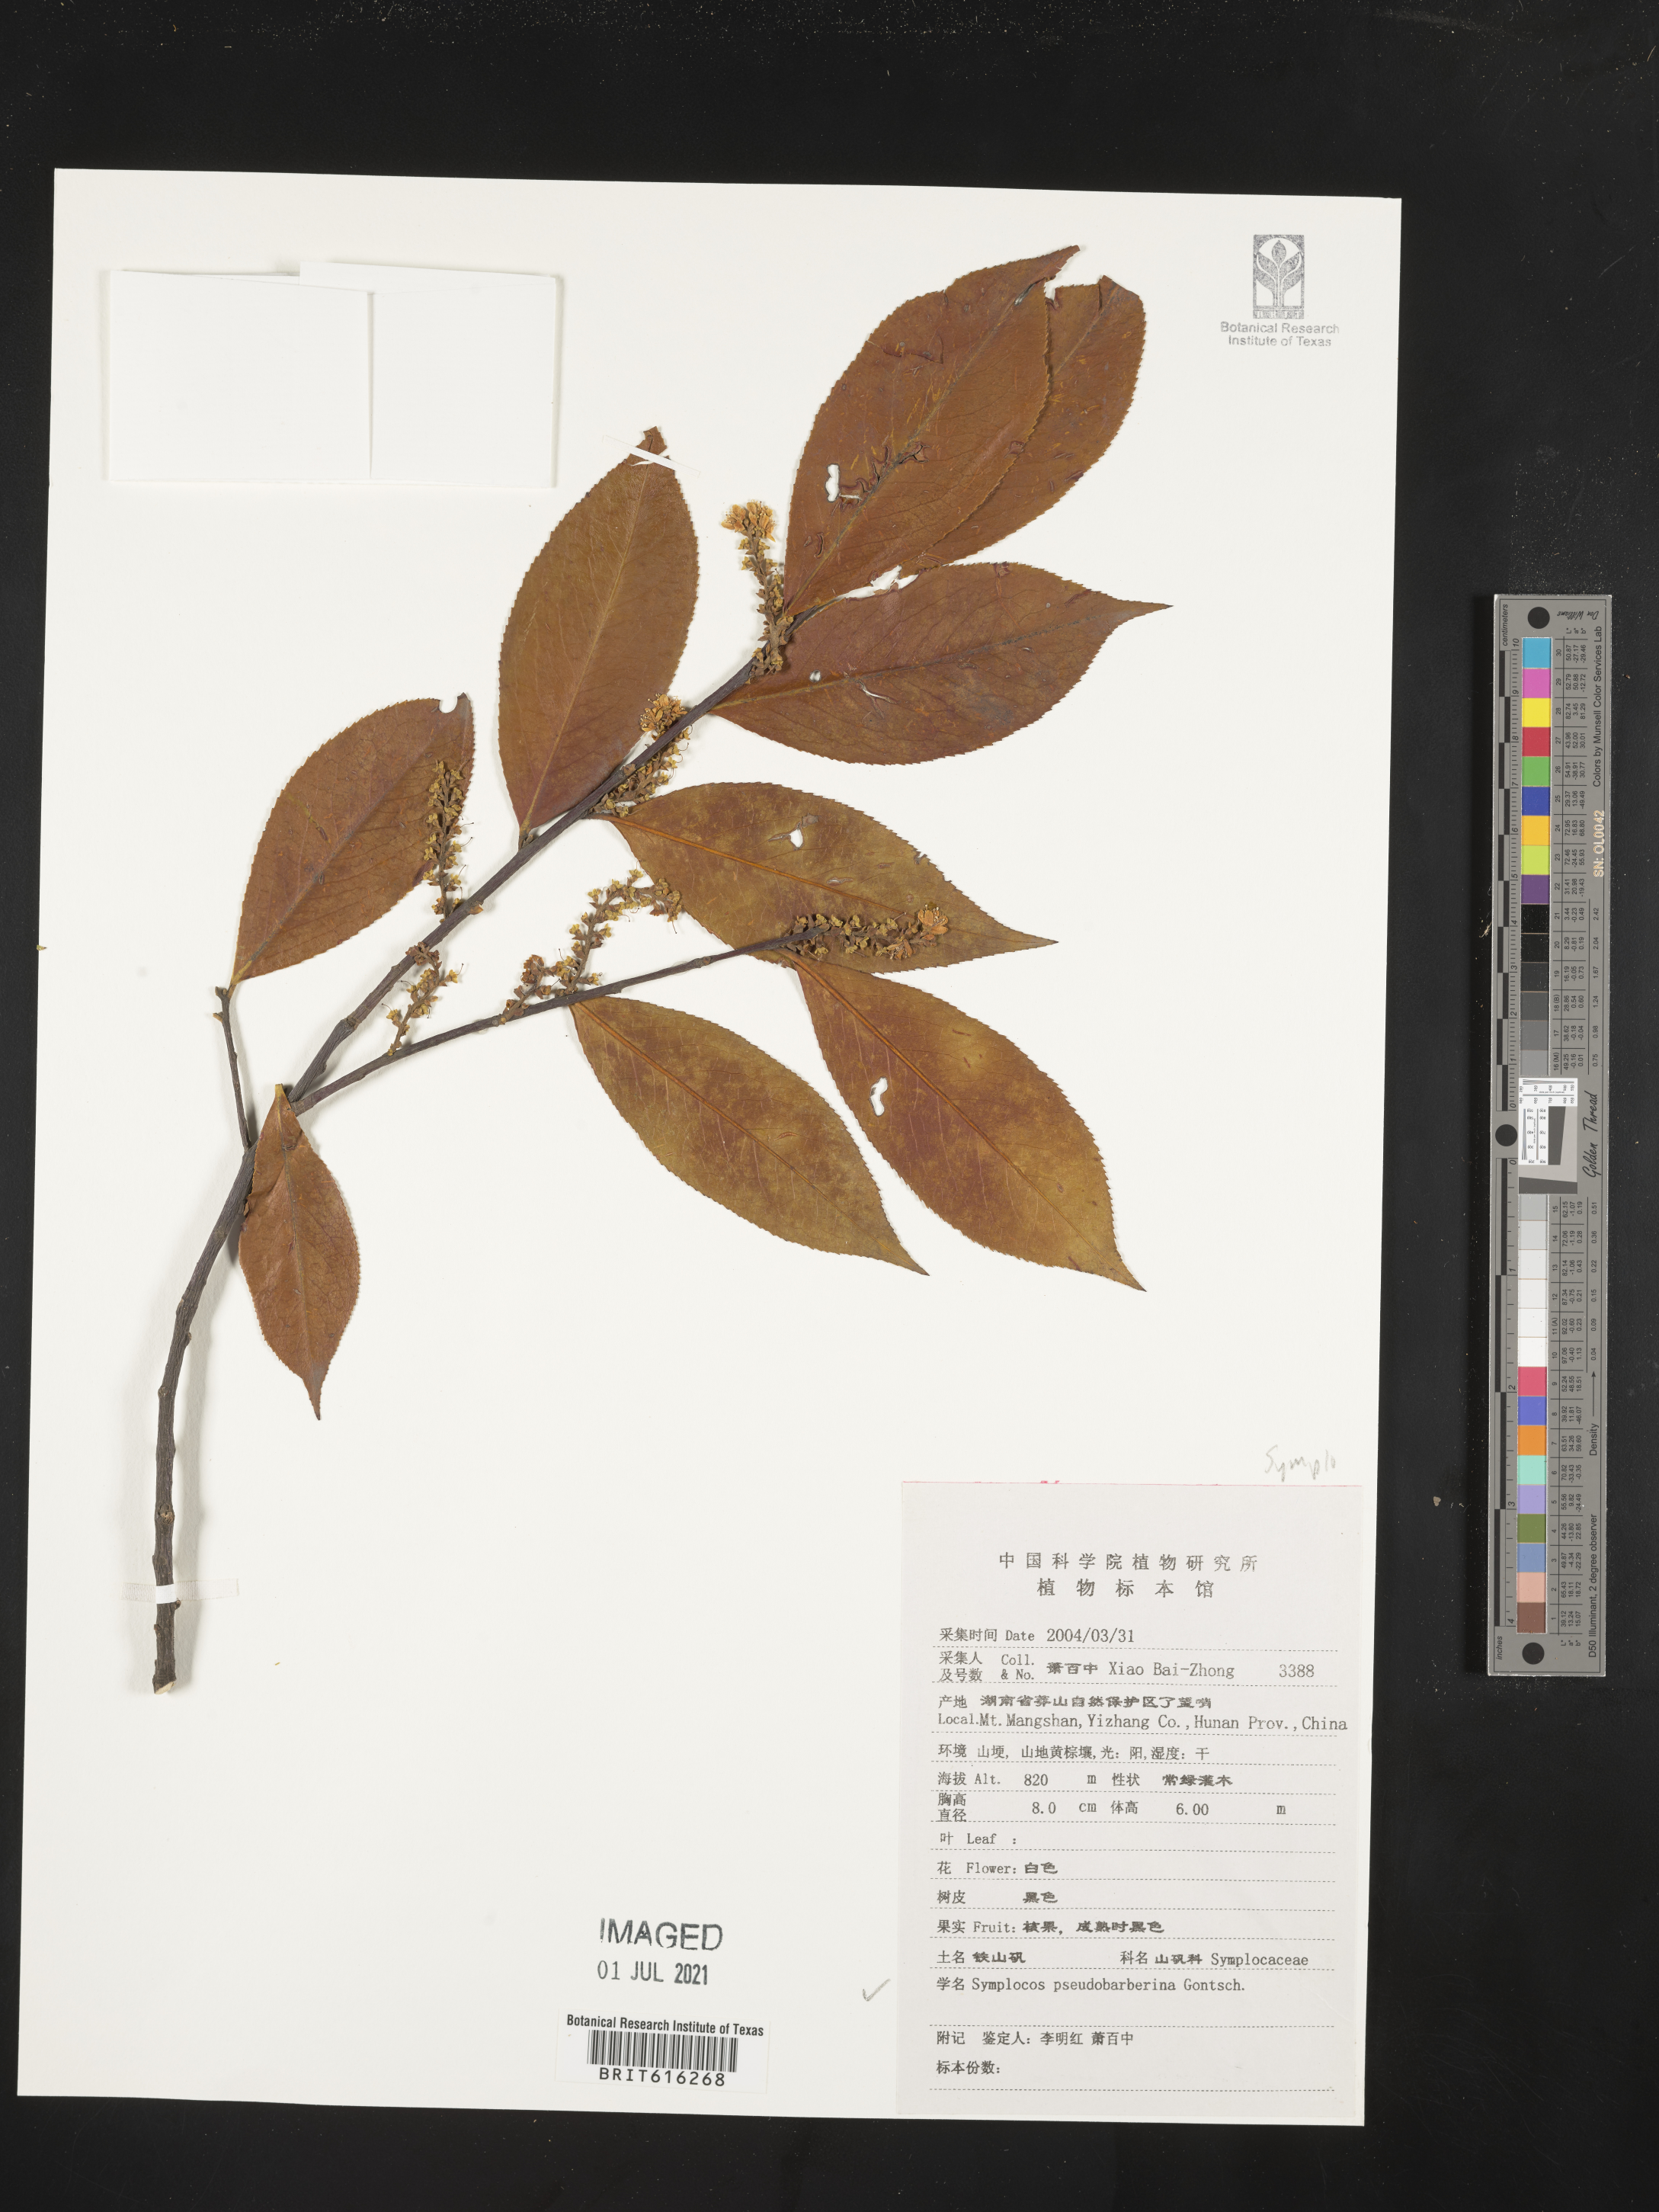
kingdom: Plantae
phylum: Tracheophyta
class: Magnoliopsida
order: Ericales
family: Symplocaceae
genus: Symplocos
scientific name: Symplocos pseudobarberina
